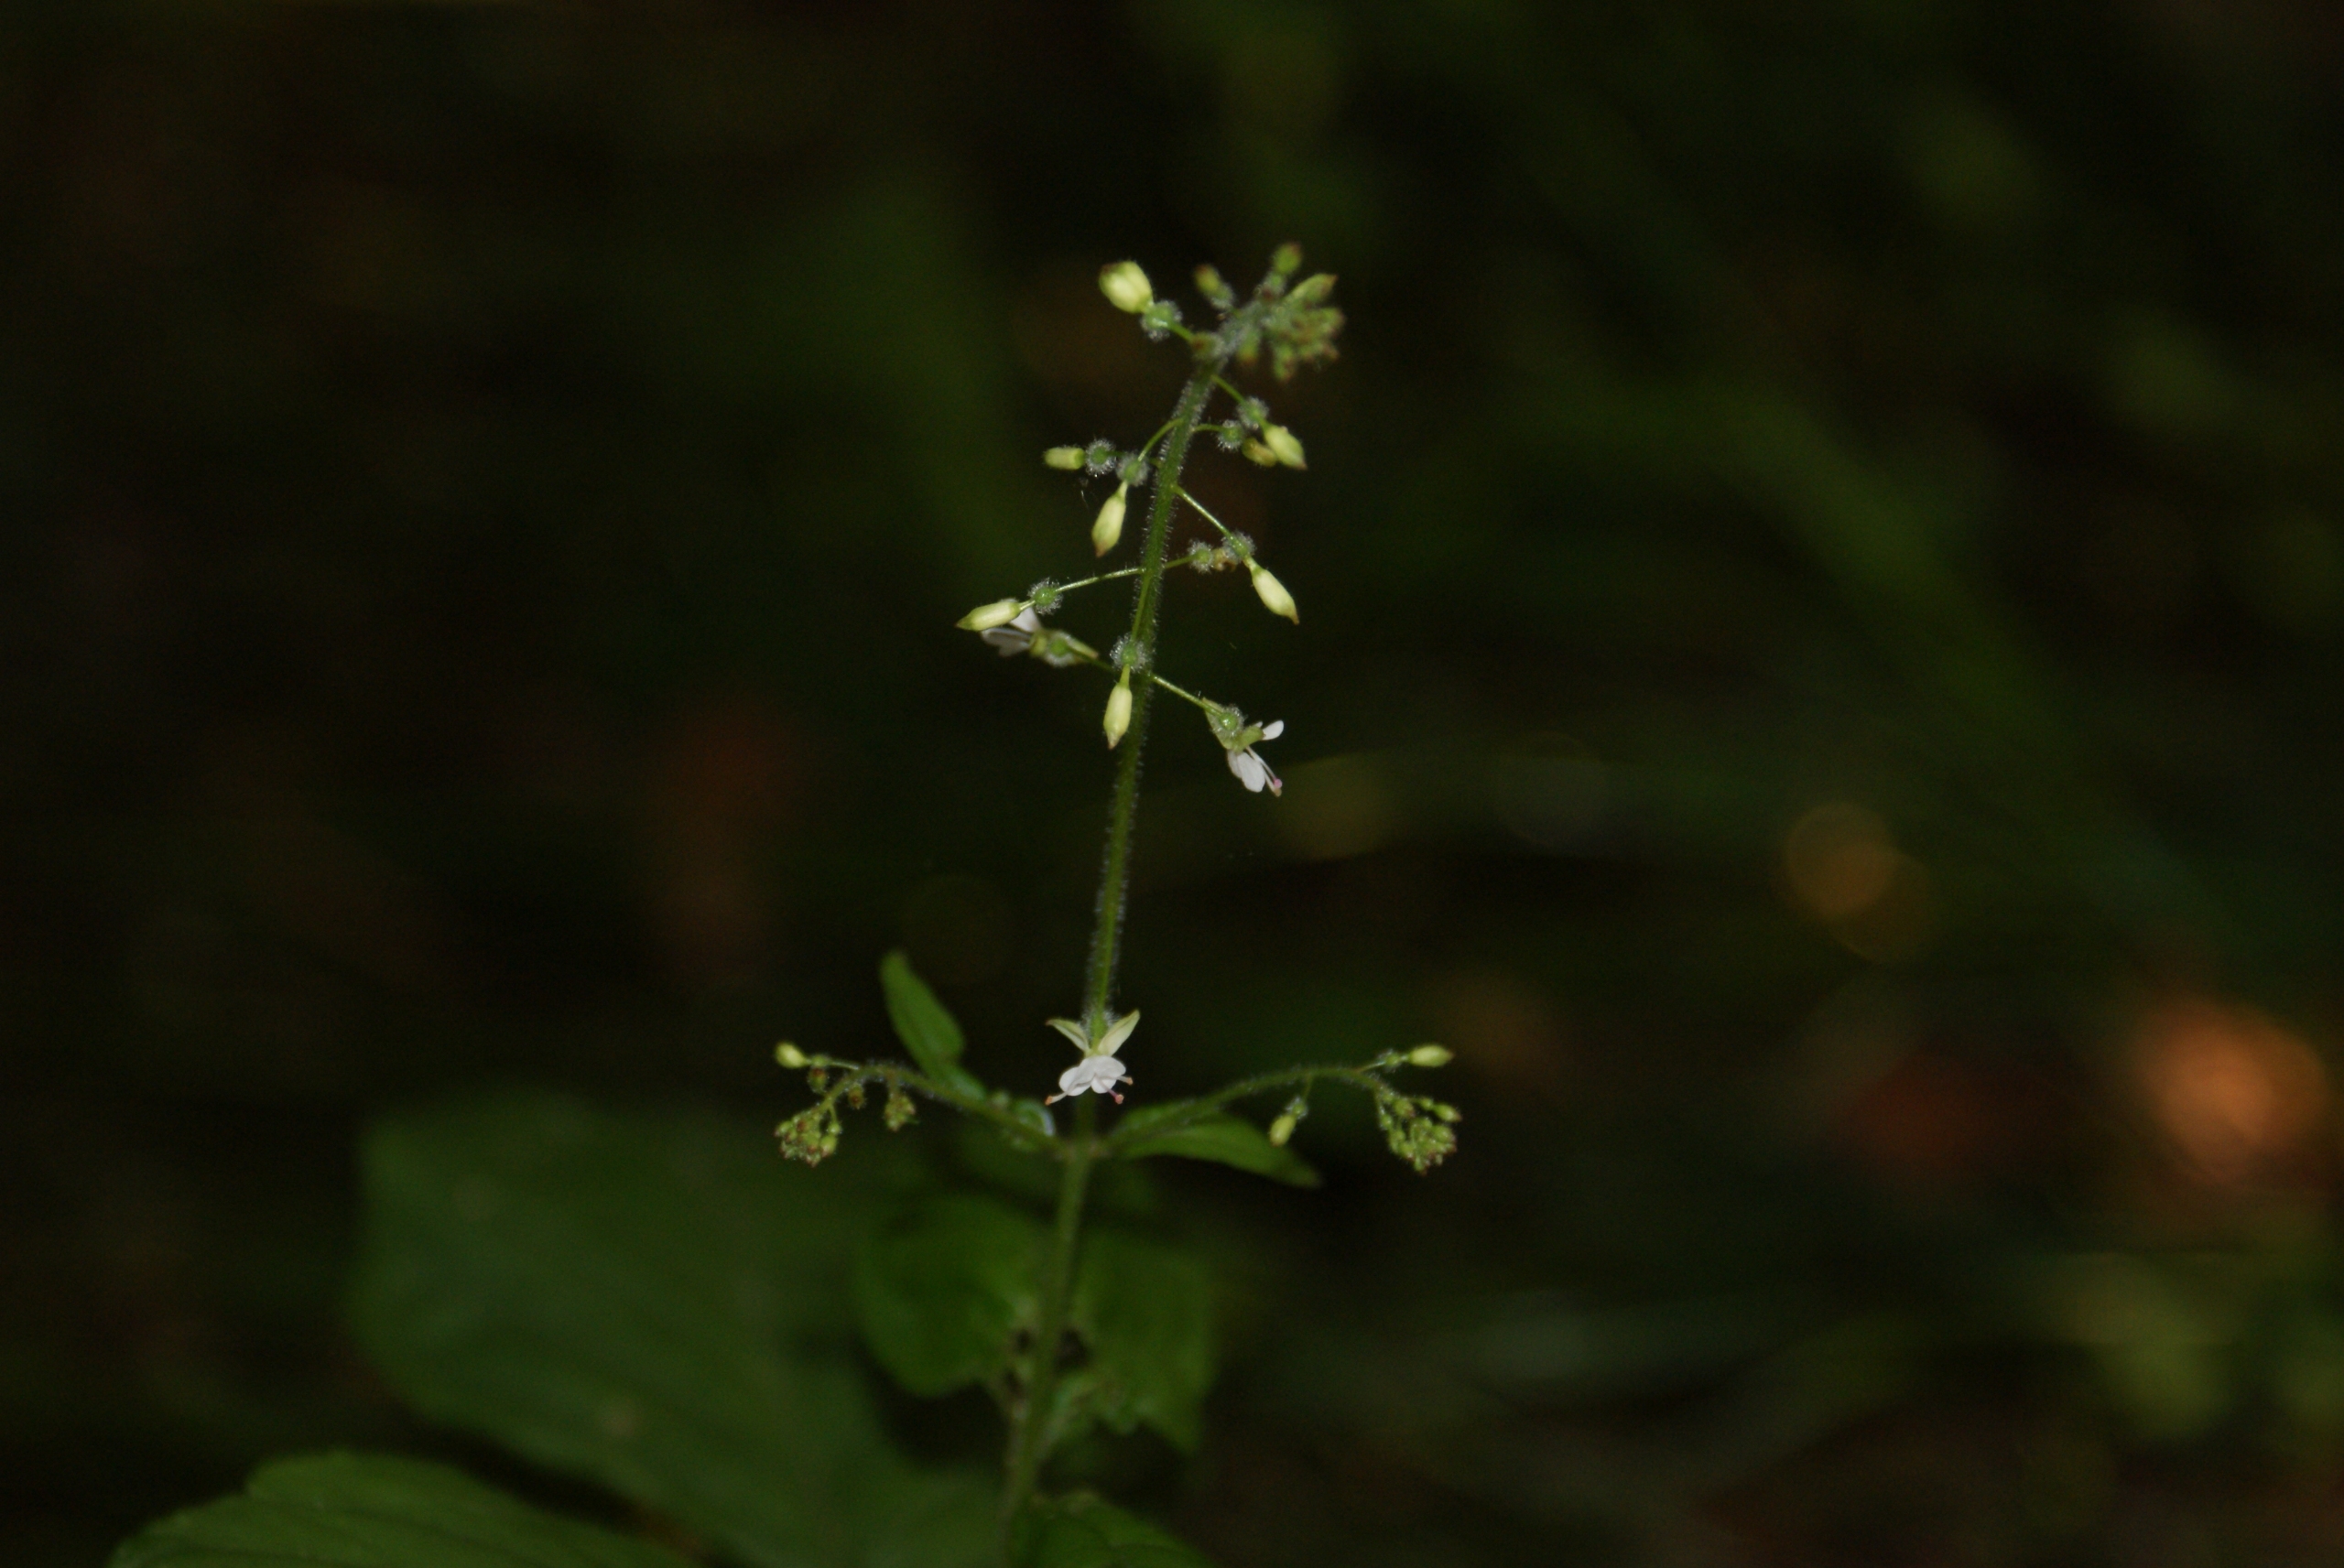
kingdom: Plantae
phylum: Tracheophyta
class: Magnoliopsida
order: Myrtales
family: Onagraceae
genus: Circaea
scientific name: Circaea lutetiana
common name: Dunet steffensurt
